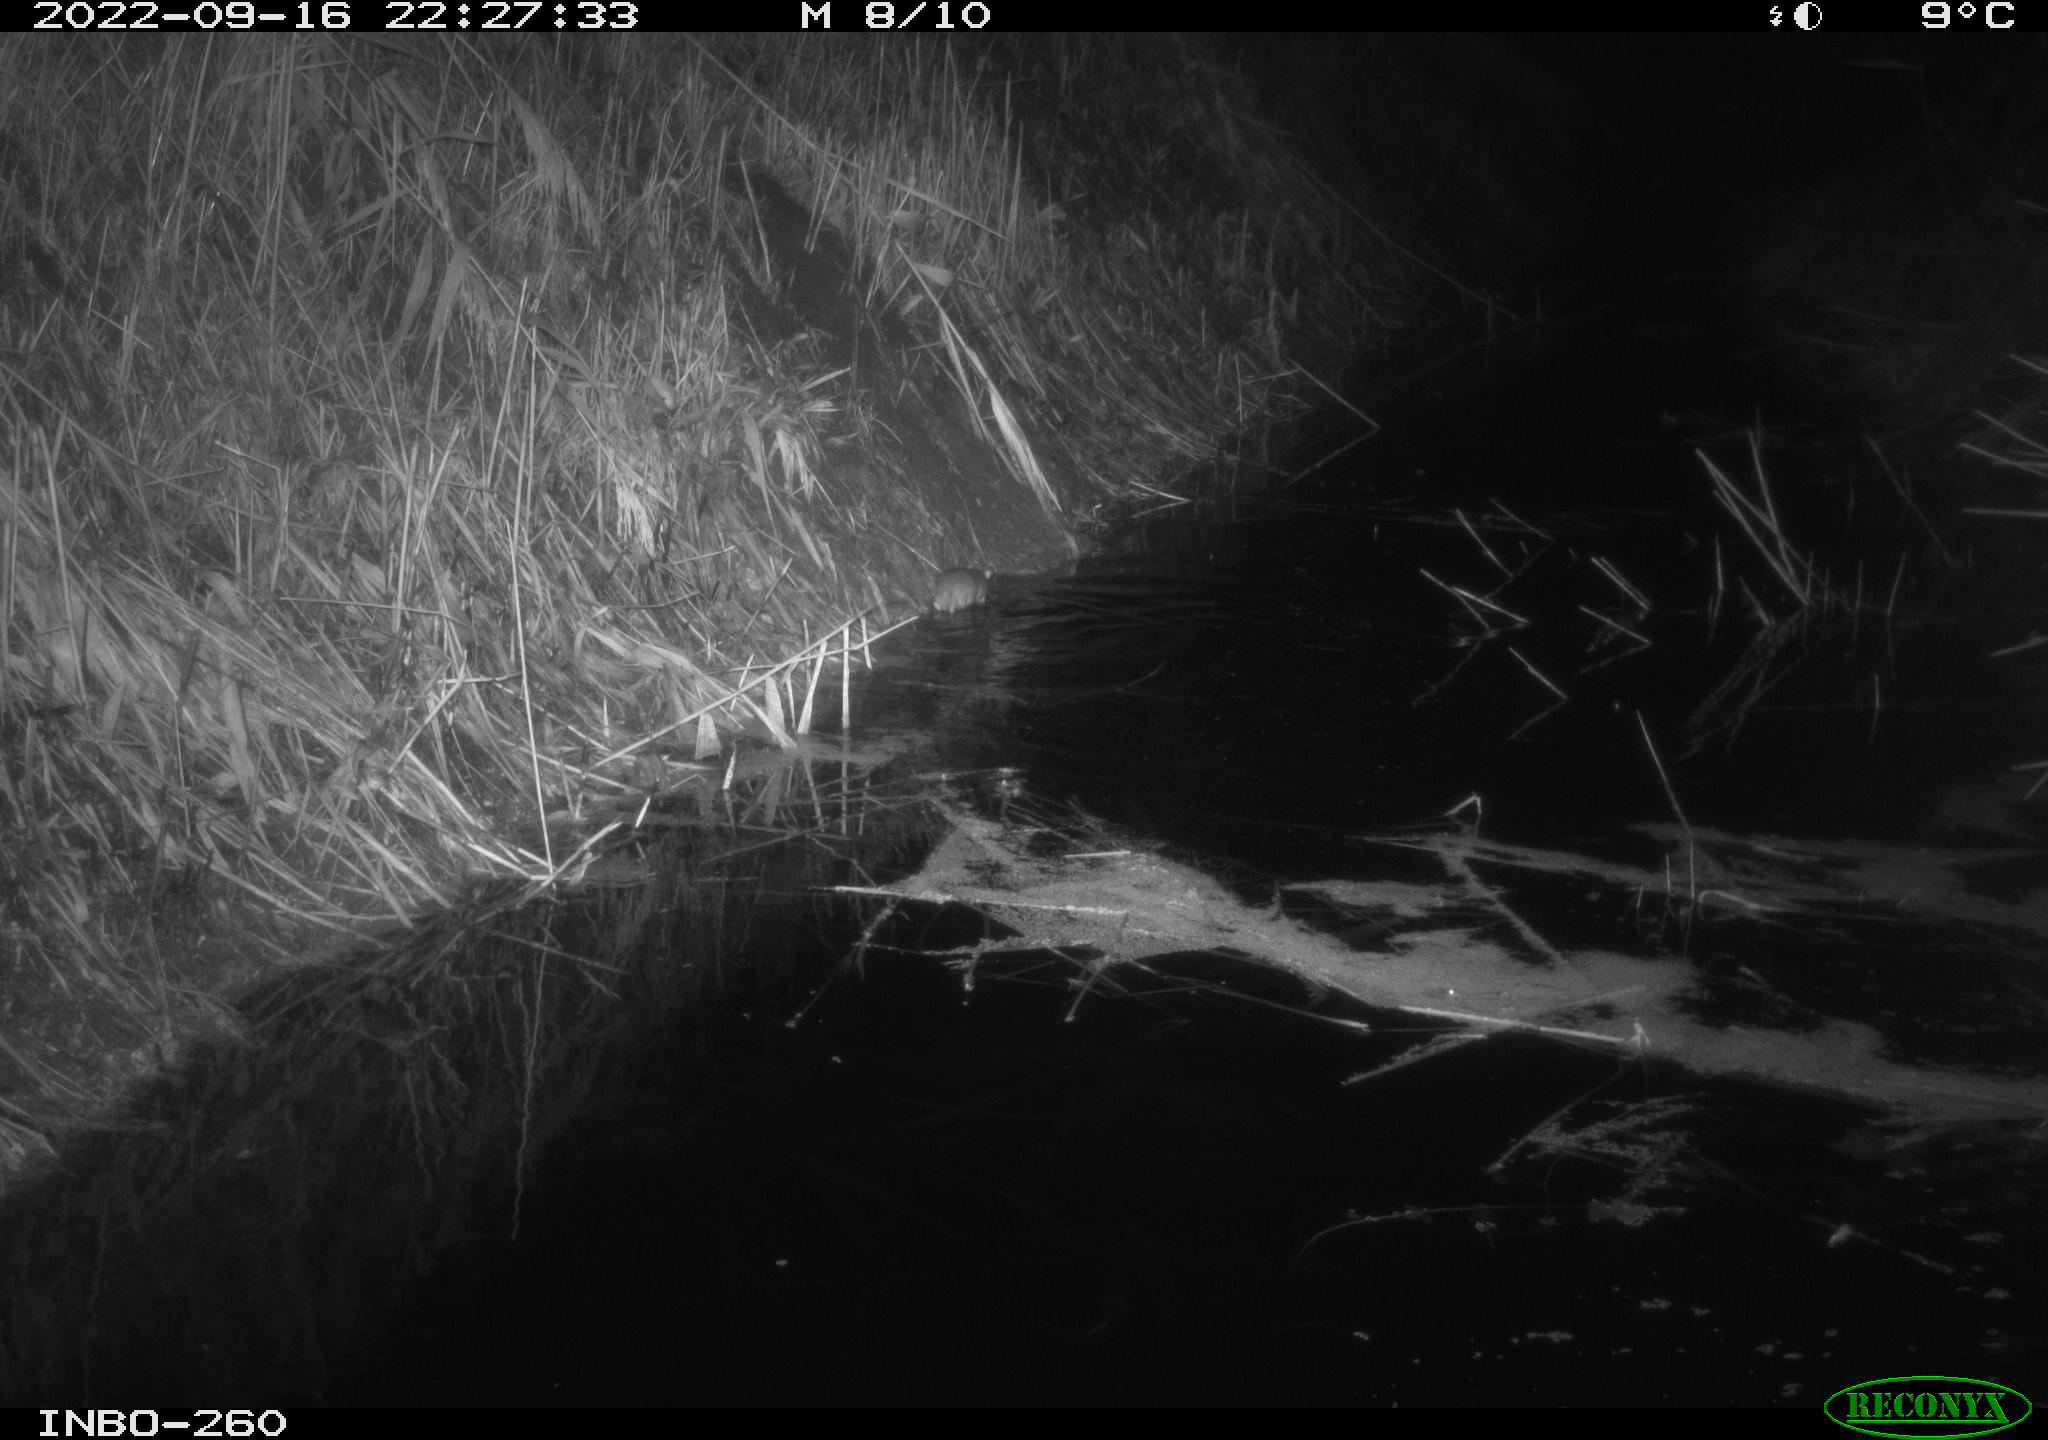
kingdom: Animalia
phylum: Chordata
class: Mammalia
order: Rodentia
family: Muridae
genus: Rattus
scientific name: Rattus norvegicus
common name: Brown rat
